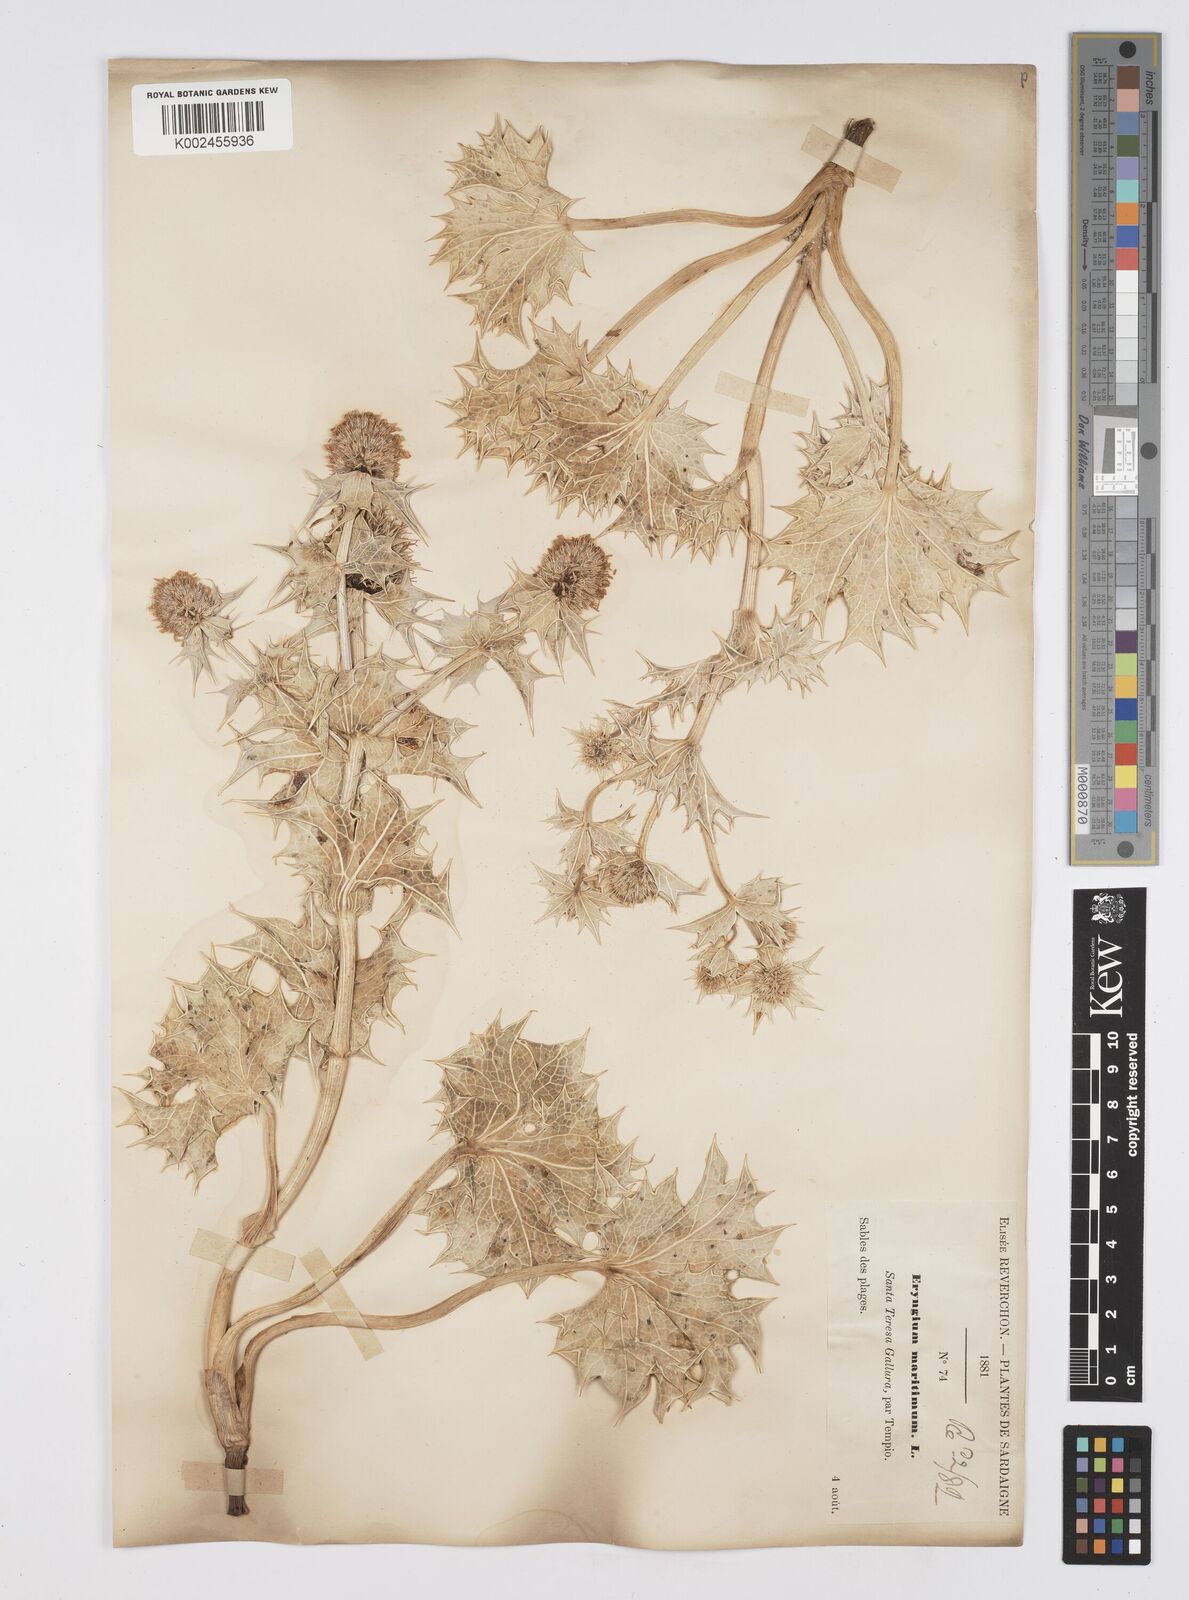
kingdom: Plantae
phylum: Tracheophyta
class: Magnoliopsida
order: Apiales
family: Apiaceae
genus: Eryngium
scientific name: Eryngium maritimum
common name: Sea-holly
